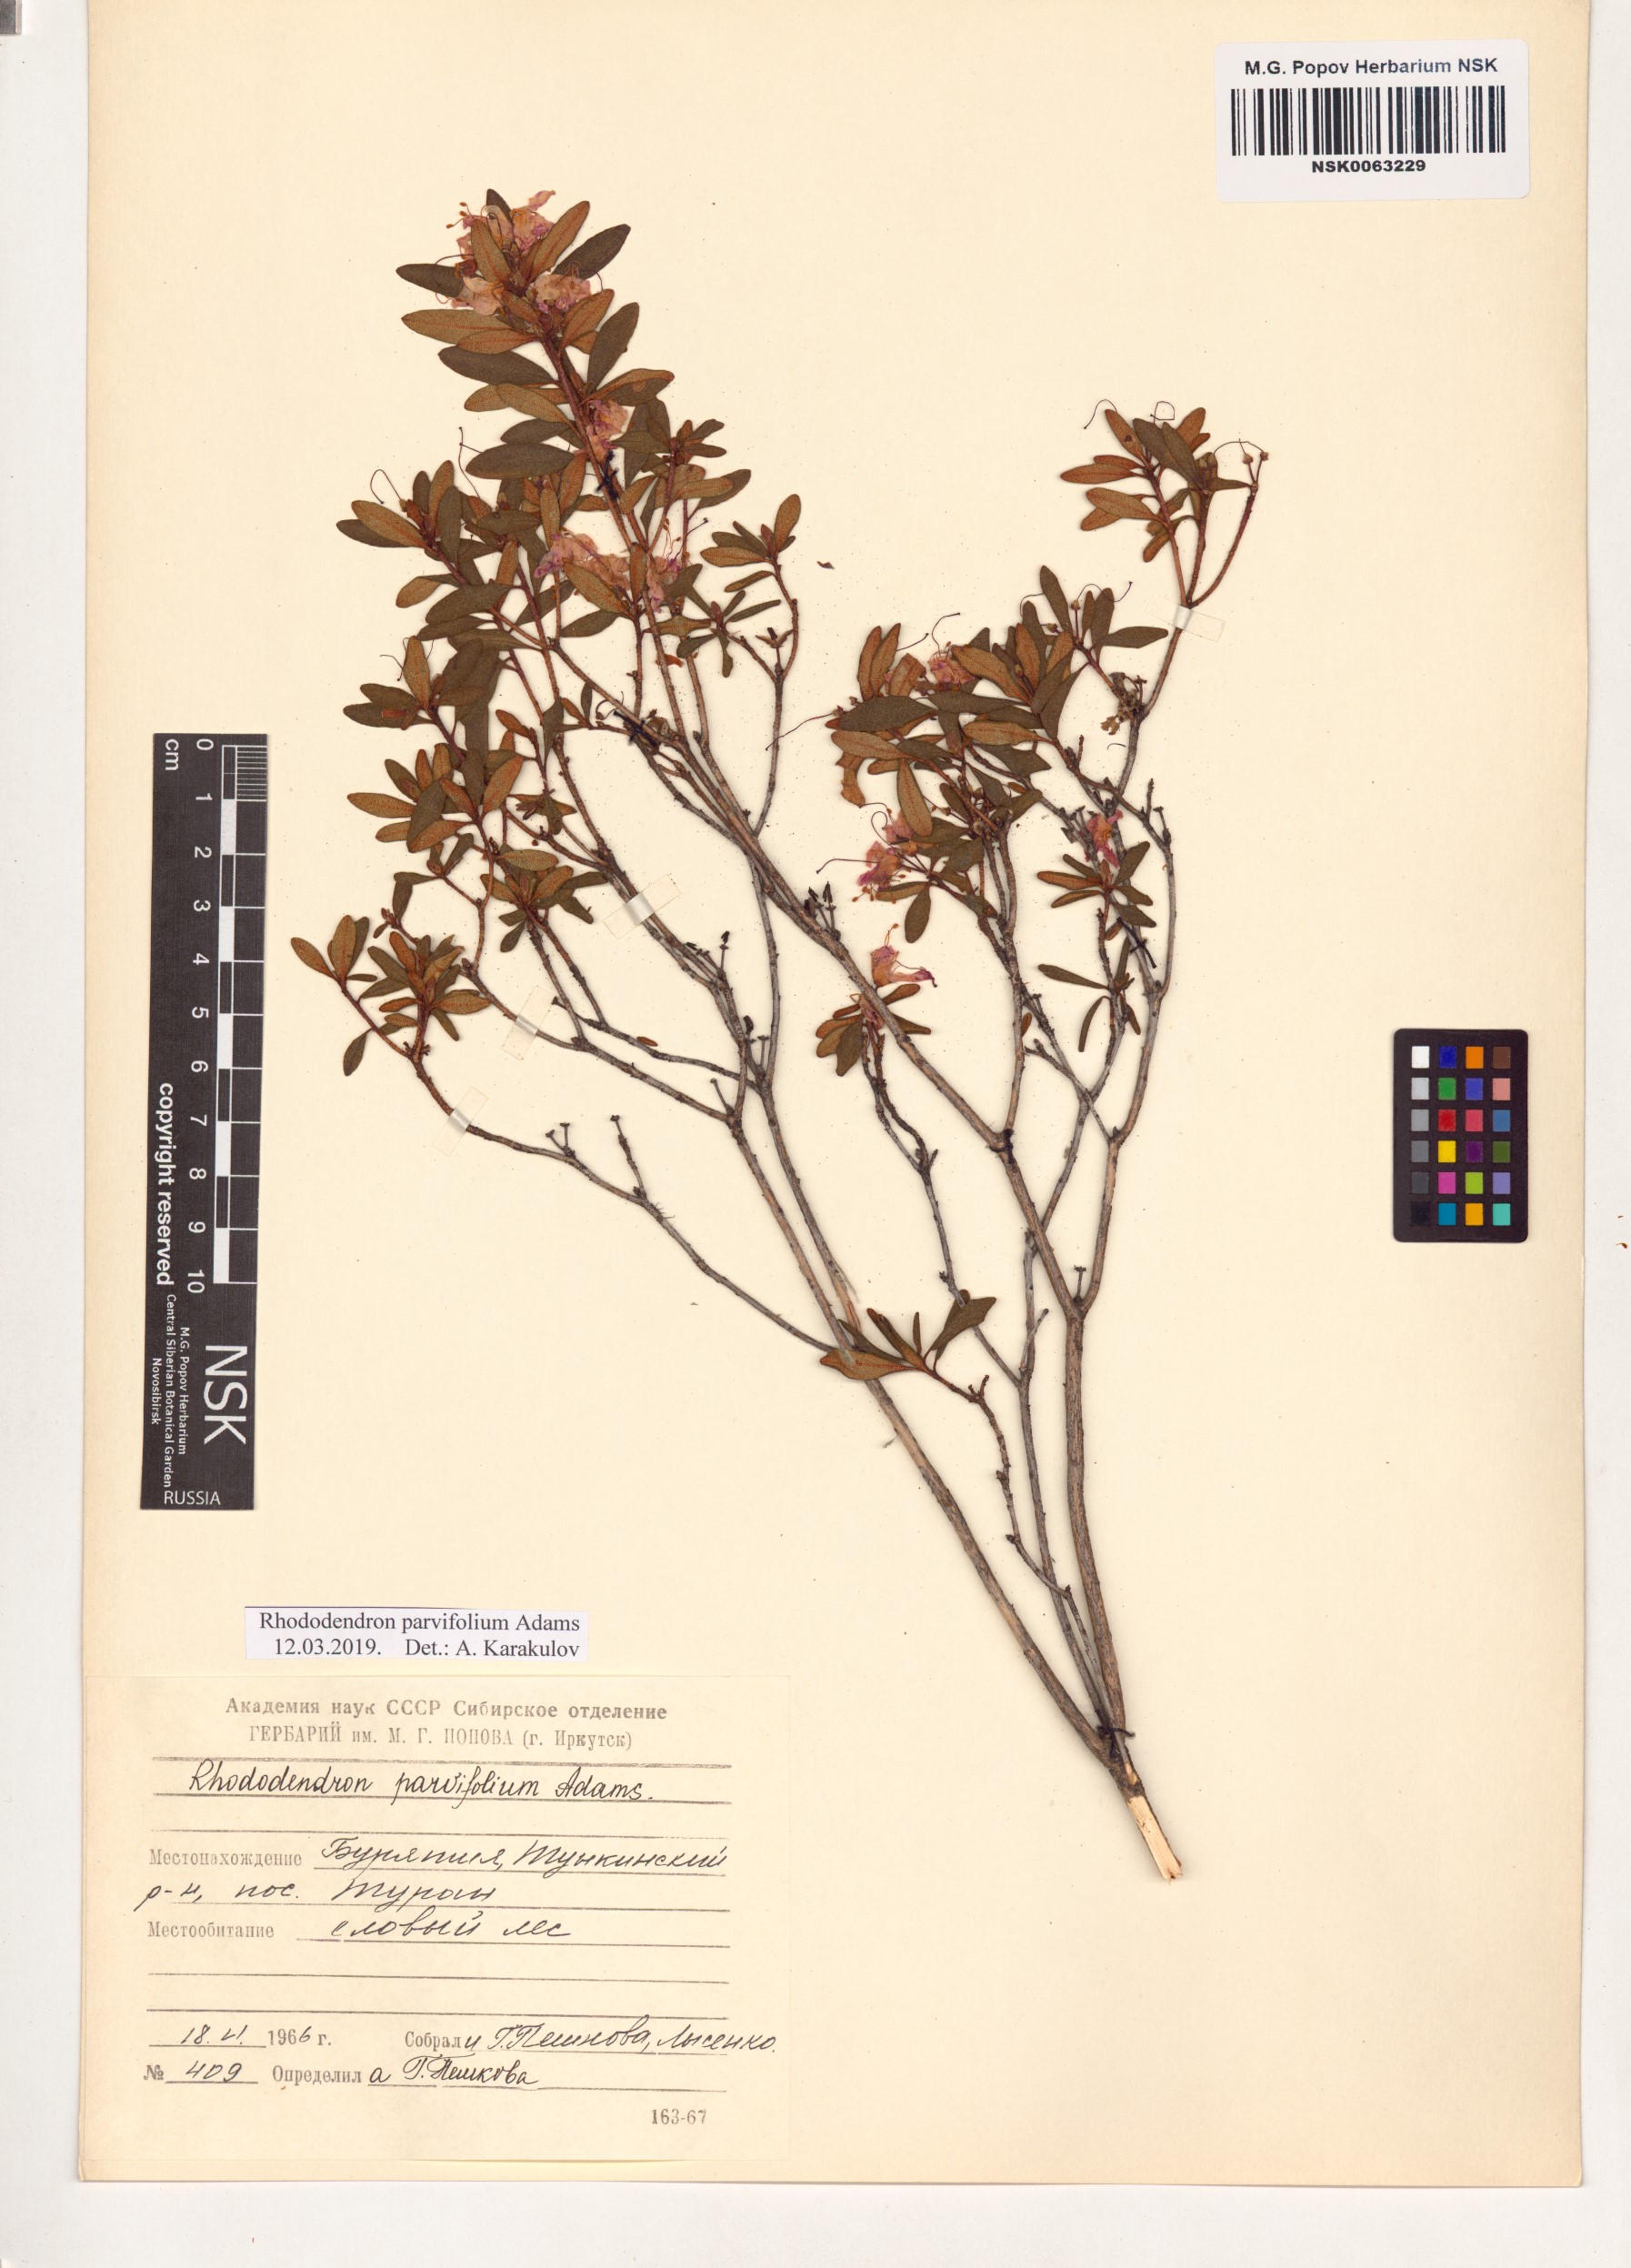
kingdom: Plantae
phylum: Tracheophyta
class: Magnoliopsida
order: Ericales
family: Ericaceae
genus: Rhododendron
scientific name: Rhododendron parvifolium
